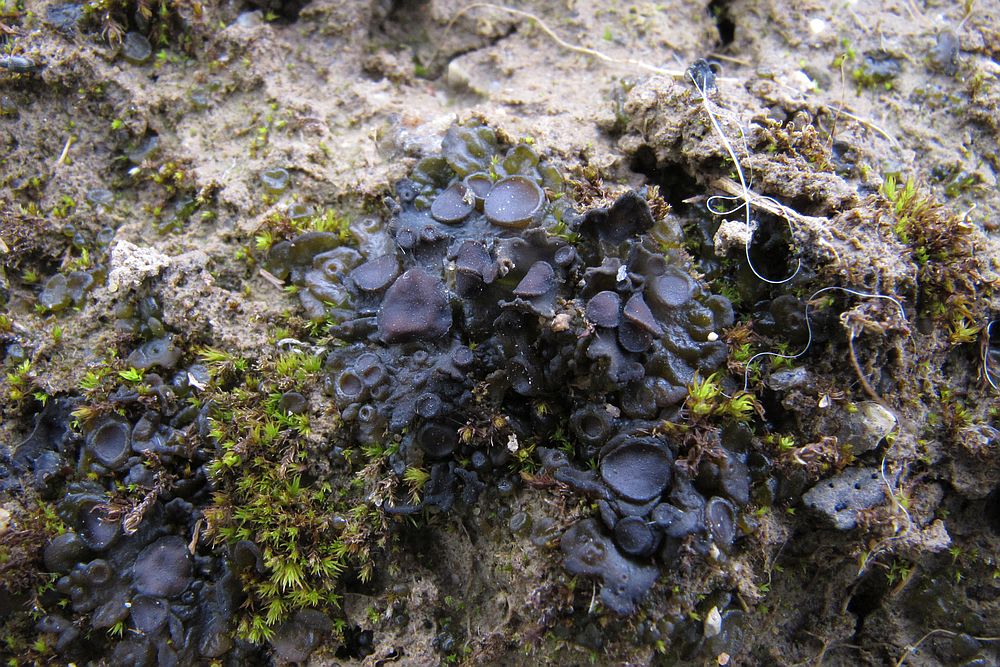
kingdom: Fungi
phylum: Ascomycota
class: Lecanoromycetes
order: Peltigerales
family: Collemataceae
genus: Enchylium
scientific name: Enchylium tenax
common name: tyk bævrelav
